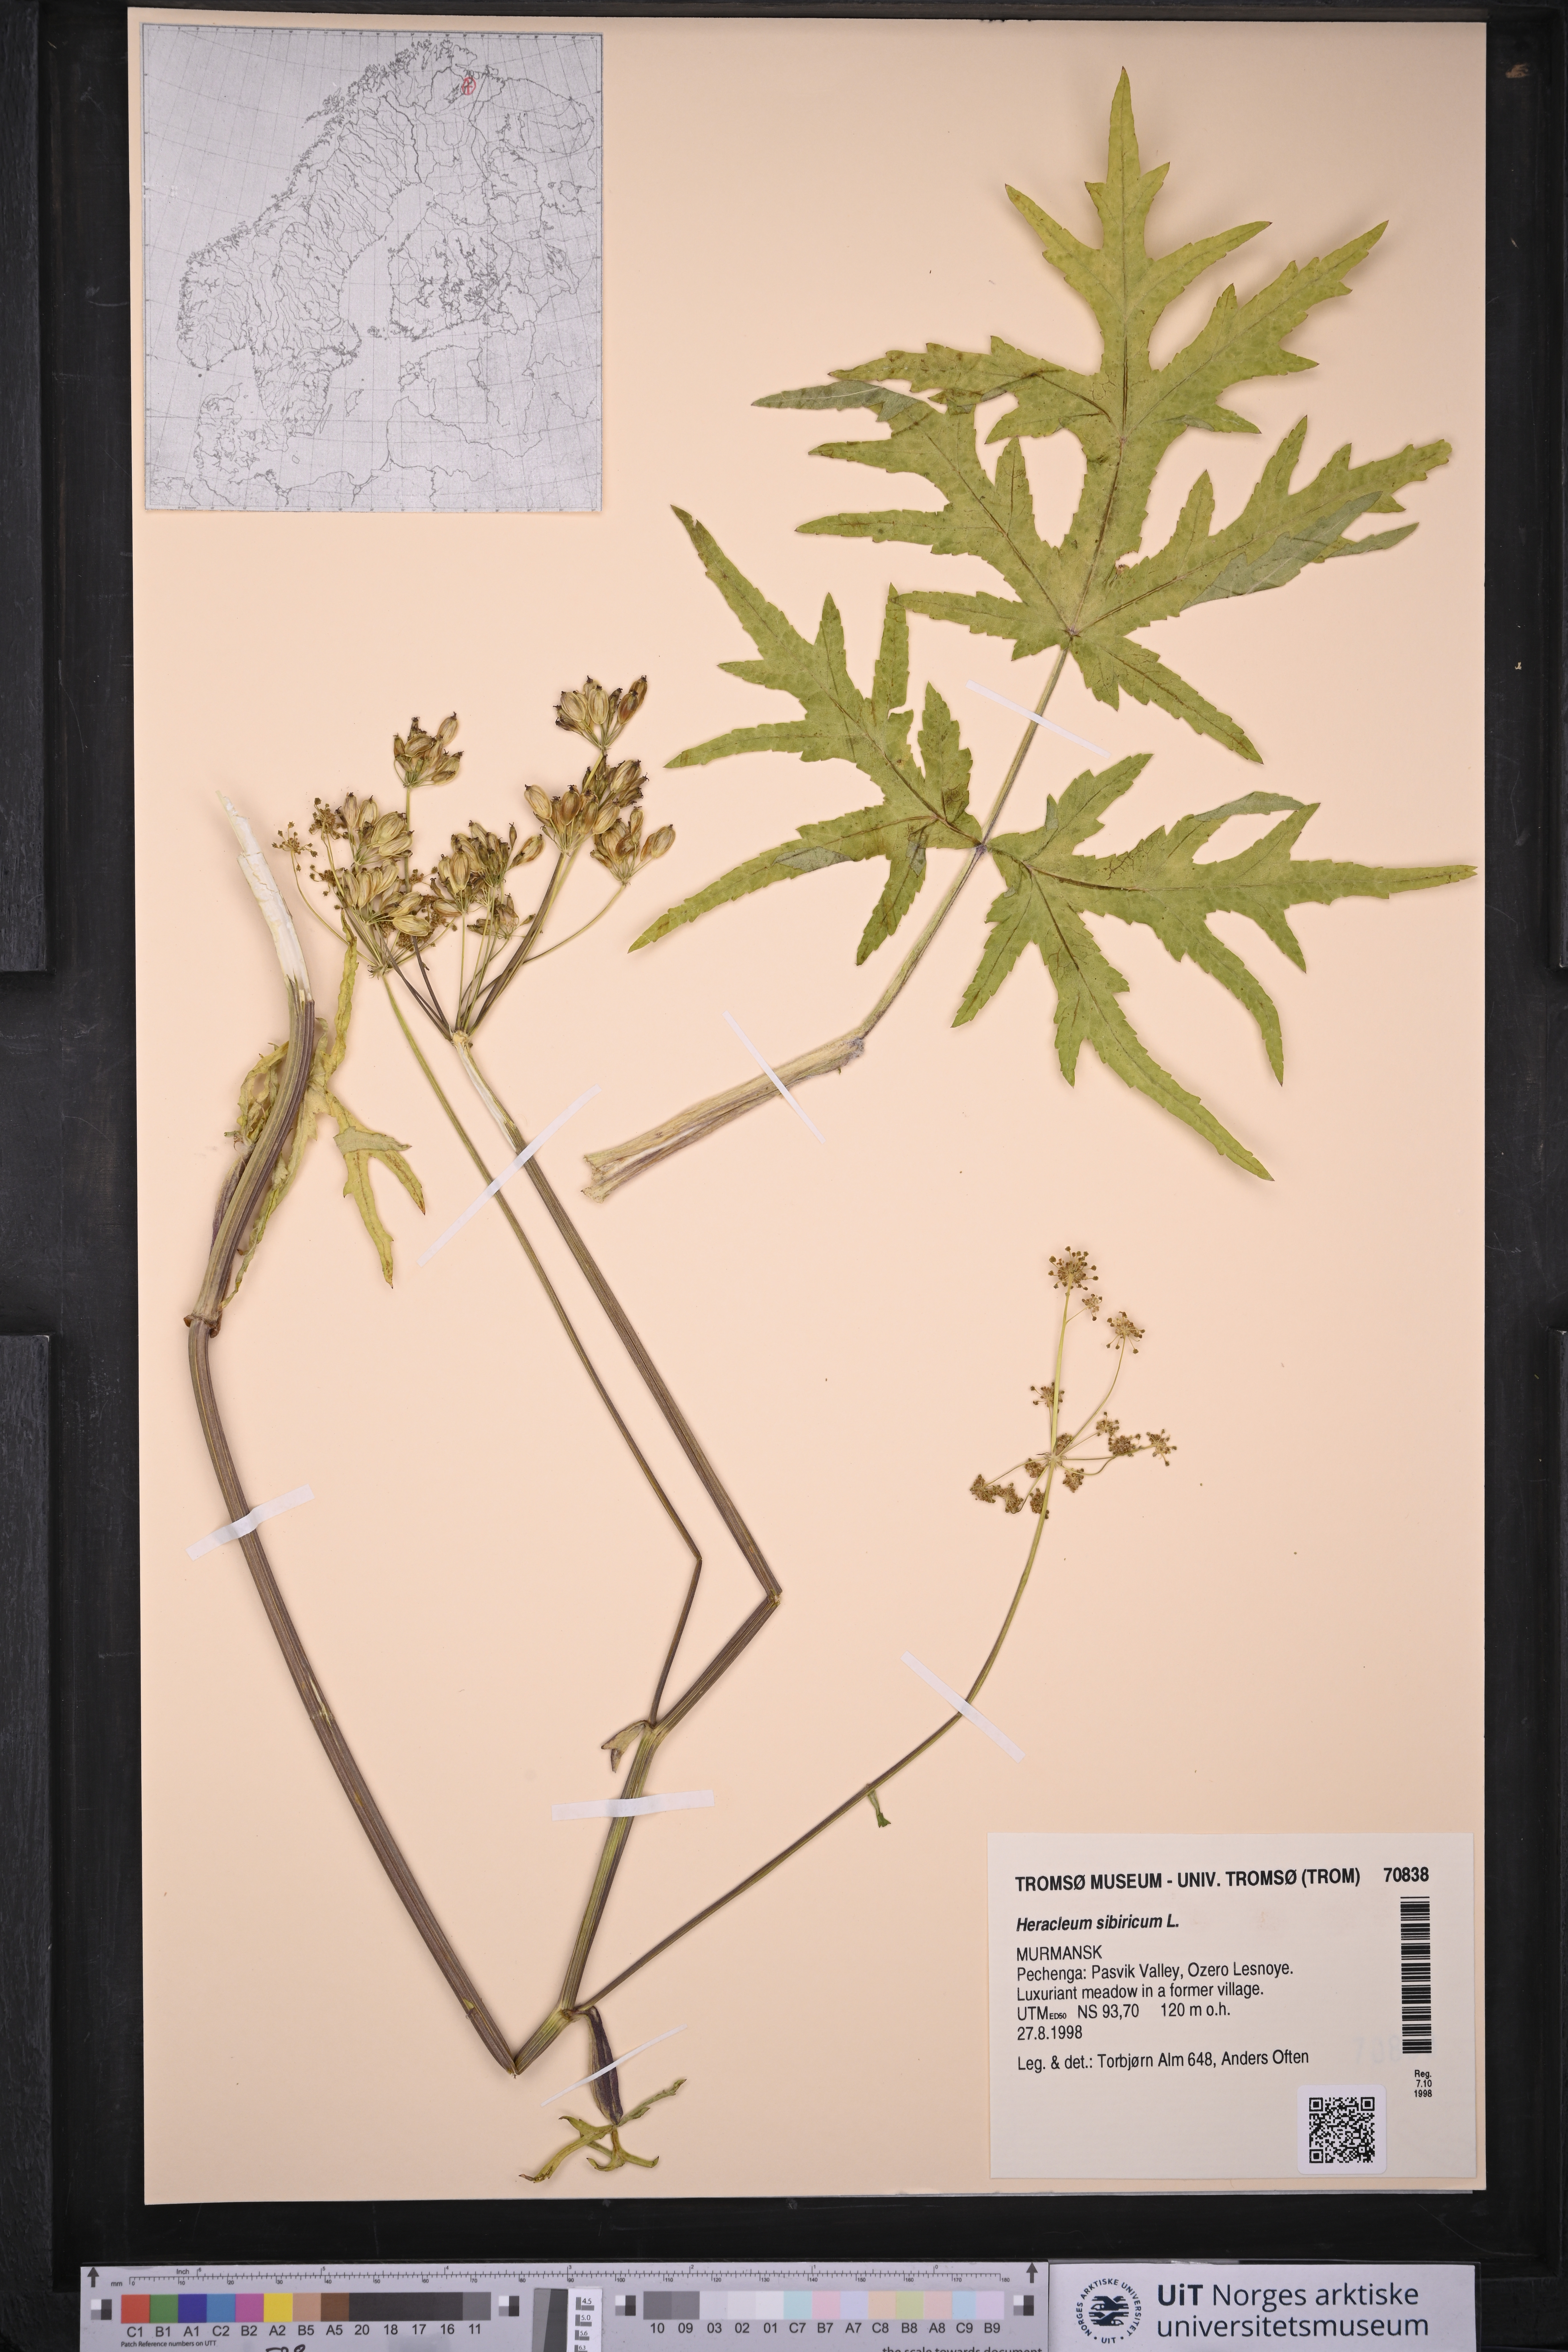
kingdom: Plantae
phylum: Tracheophyta
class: Magnoliopsida
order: Apiales
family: Apiaceae
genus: Heracleum
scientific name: Heracleum sphondylium
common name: Hogweed
